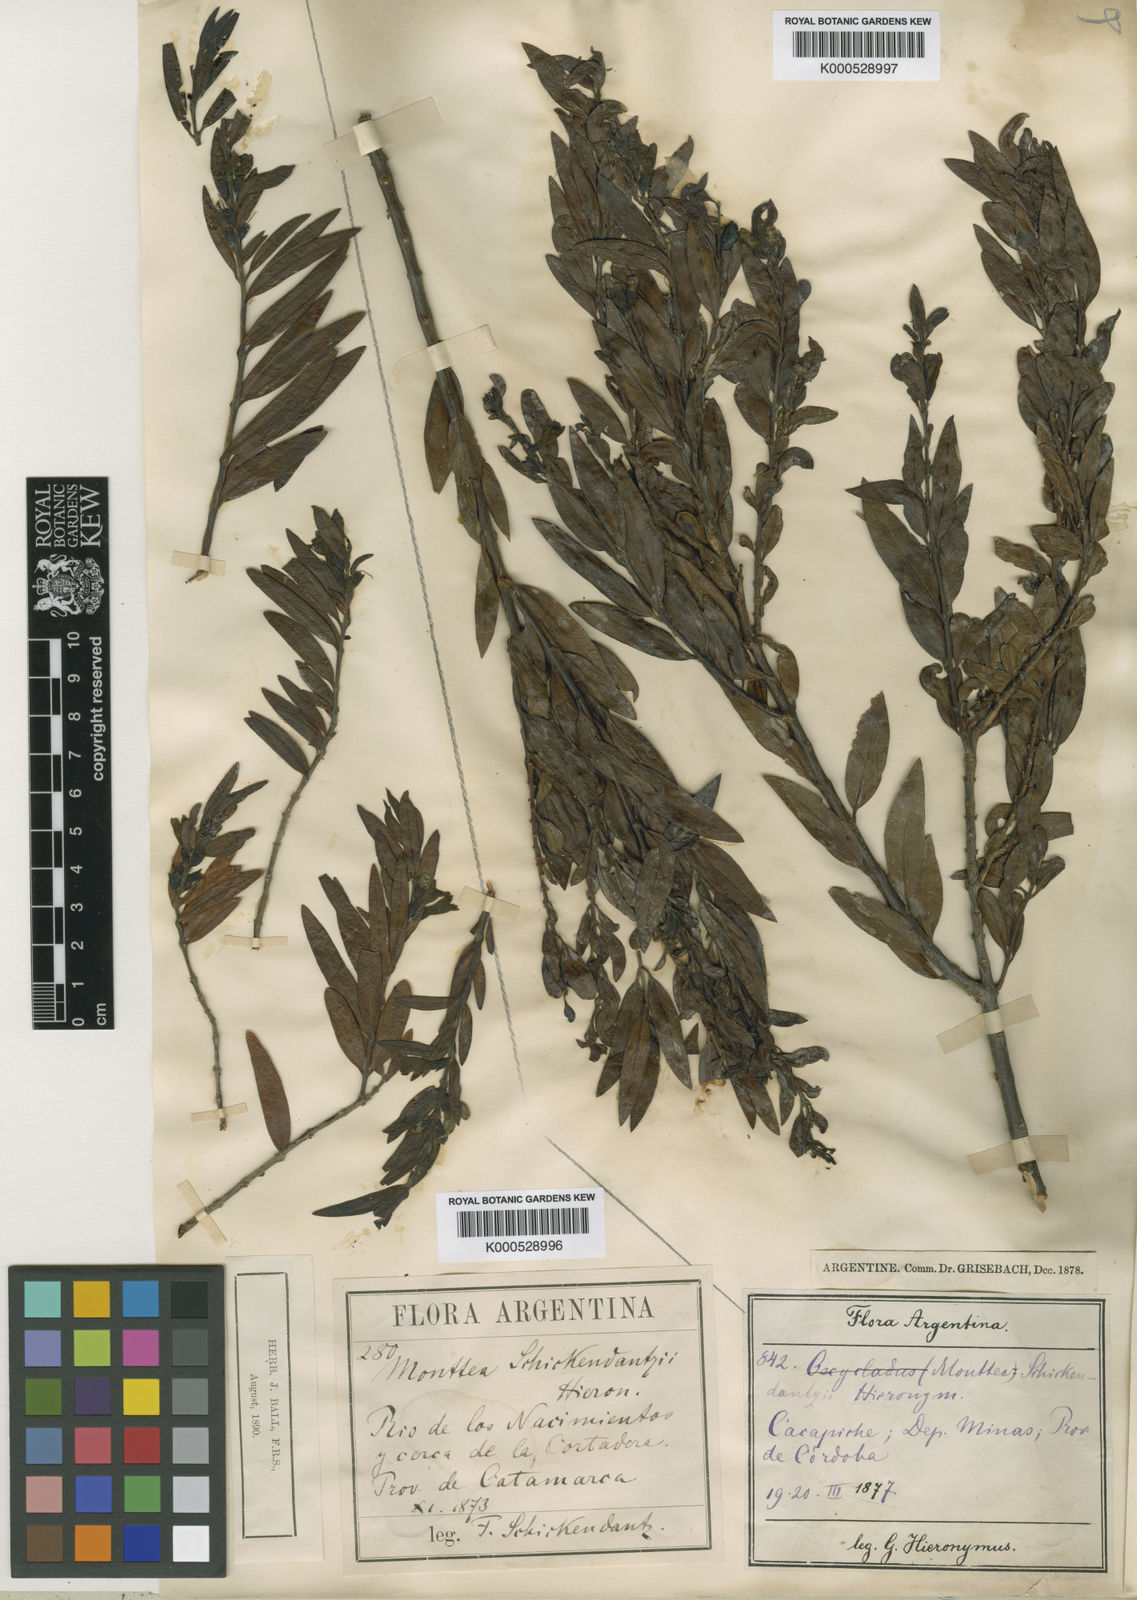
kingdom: Plantae
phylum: Tracheophyta
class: Magnoliopsida
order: Lamiales
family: Plantaginaceae
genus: Monttea
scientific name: Monttea
